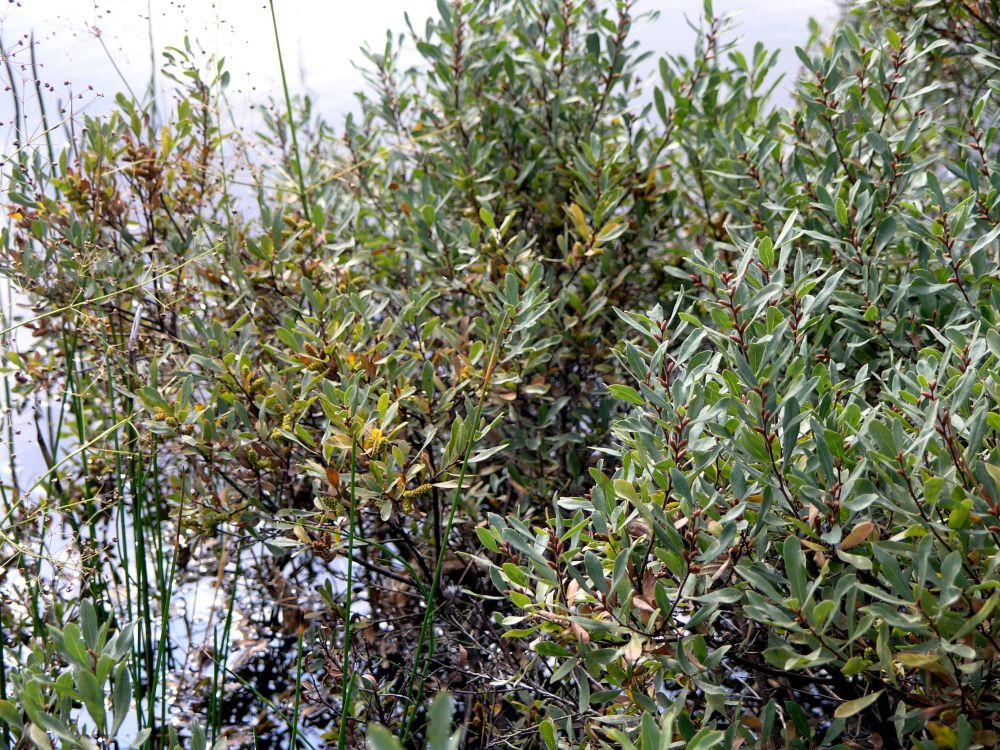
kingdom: Plantae
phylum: Tracheophyta
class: Magnoliopsida
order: Fagales
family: Myricaceae
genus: Myrica
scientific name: Myrica gale
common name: Sweet gale
